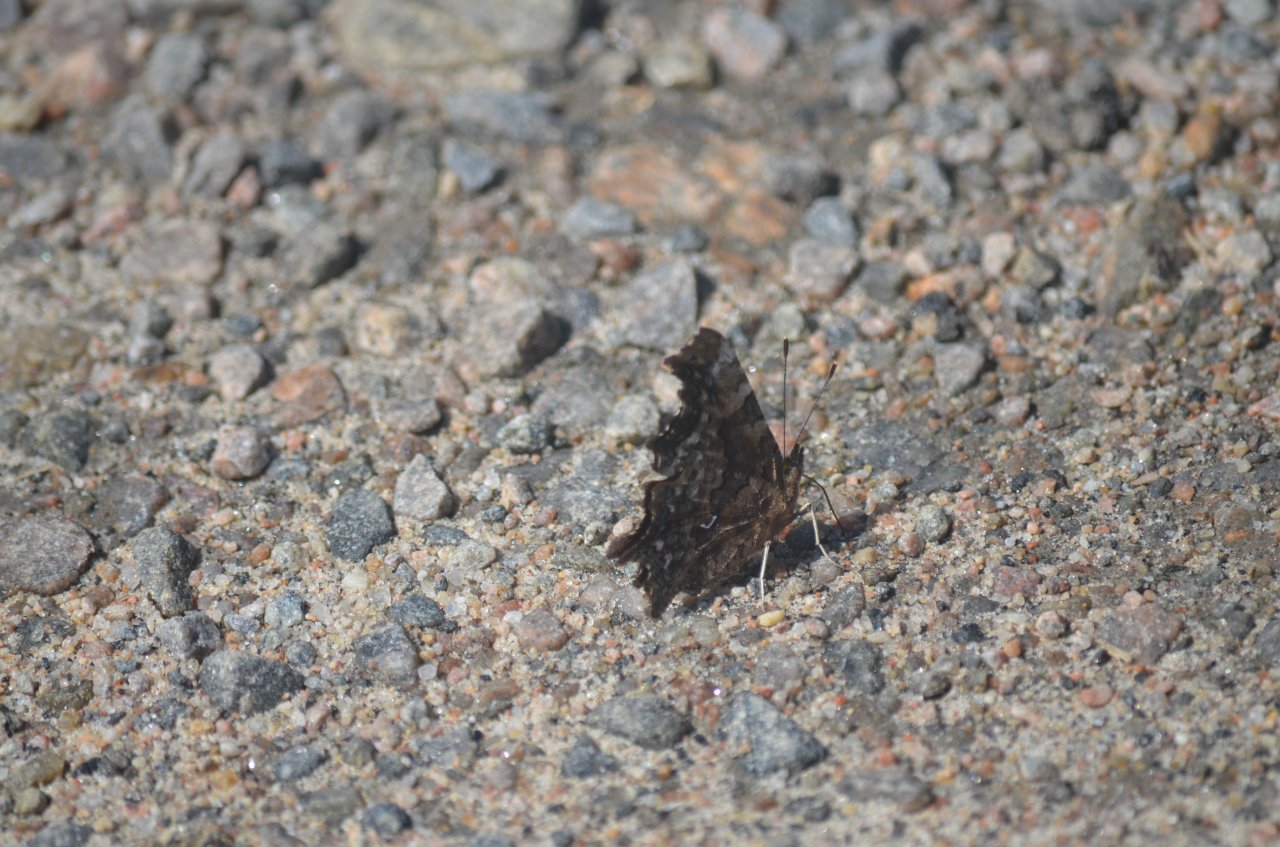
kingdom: Animalia
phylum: Arthropoda
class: Insecta
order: Lepidoptera
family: Nymphalidae
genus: Polygonia
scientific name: Polygonia faunus
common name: Green Comma
